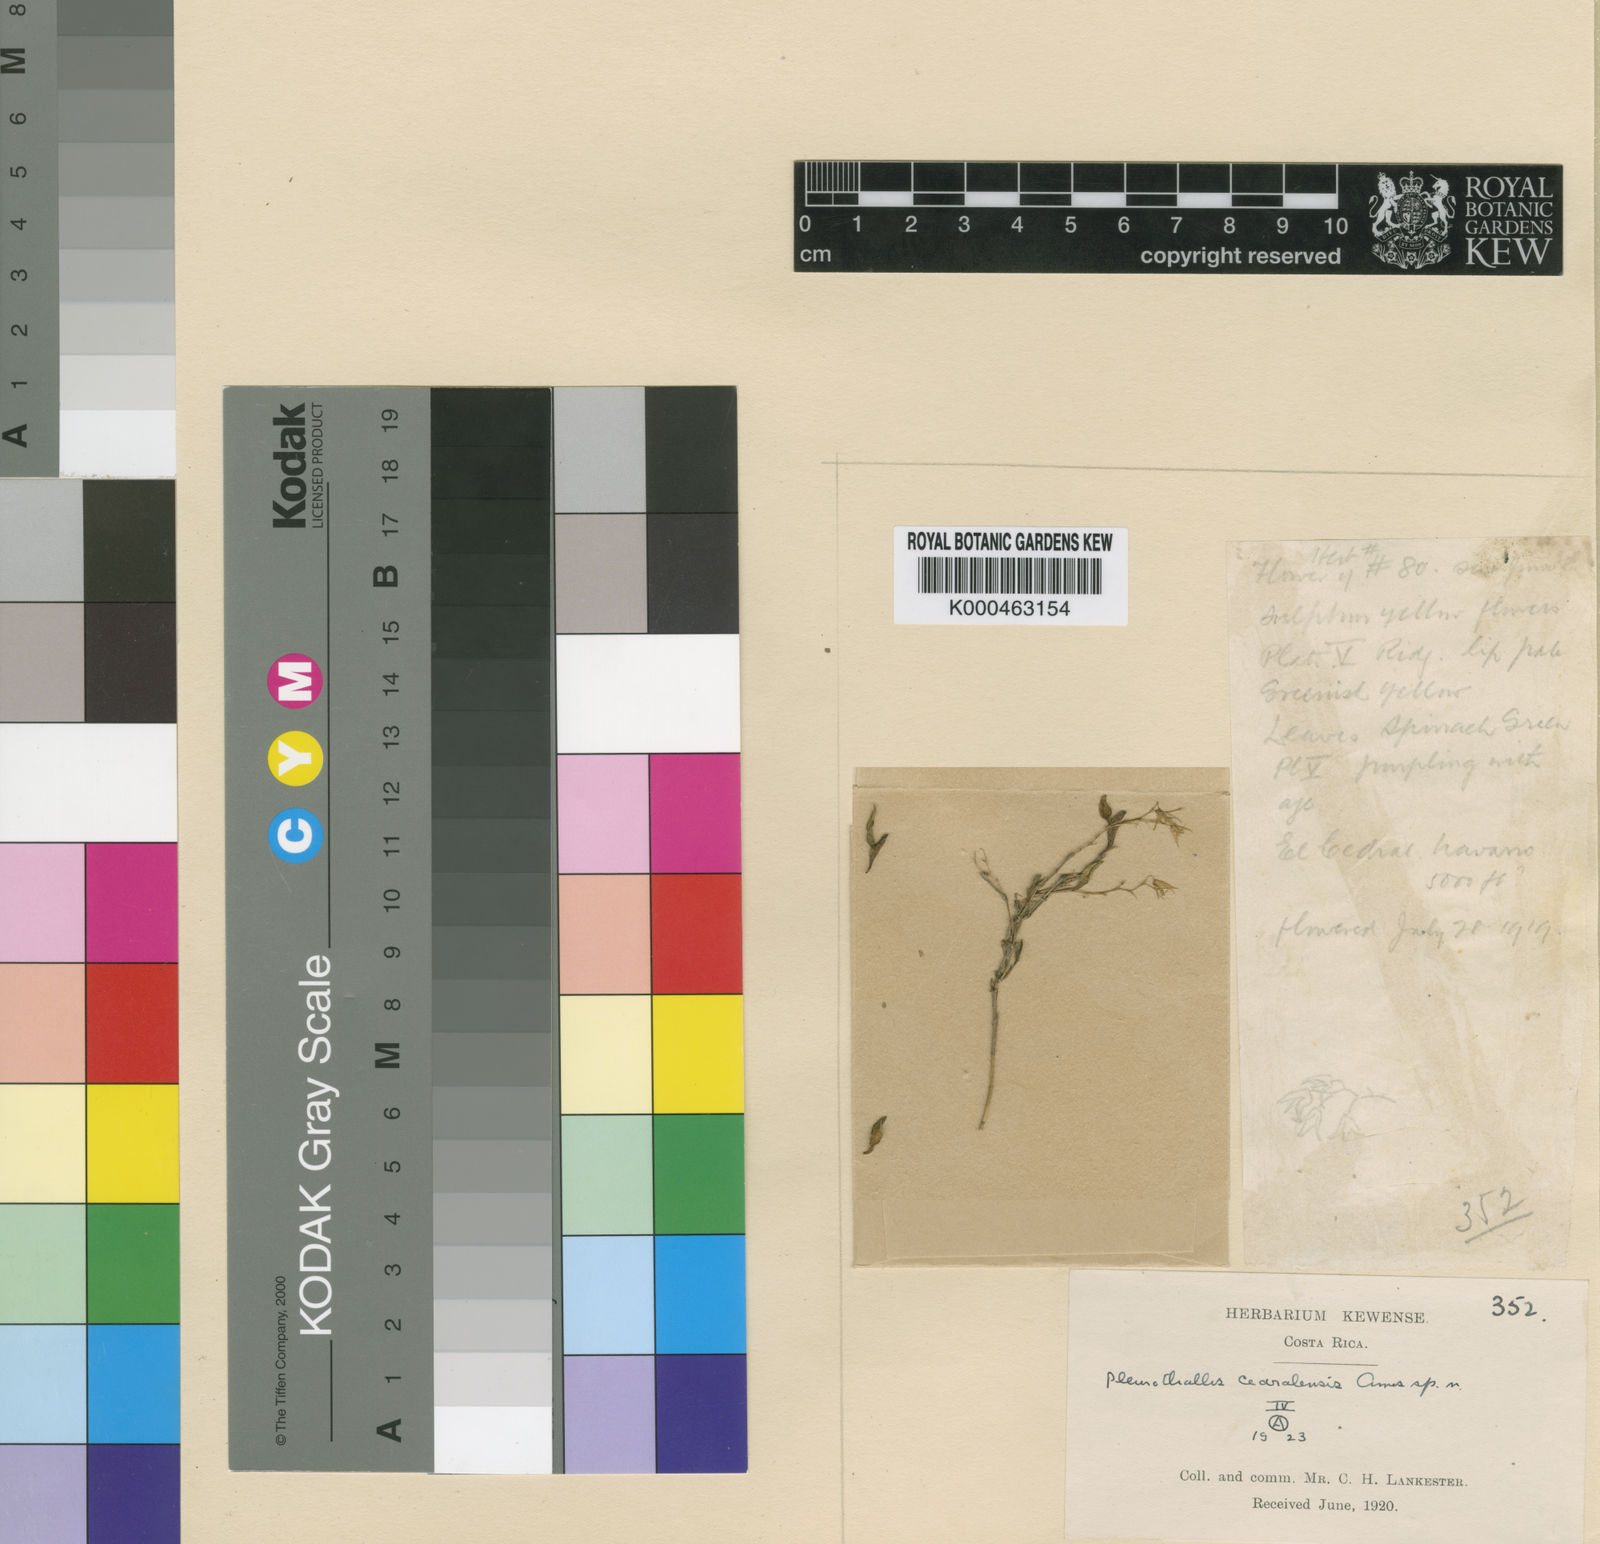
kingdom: Plantae
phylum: Tracheophyta
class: Liliopsida
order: Asparagales
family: Orchidaceae
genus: Trichosalpinx
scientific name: Trichosalpinx cedralensis
